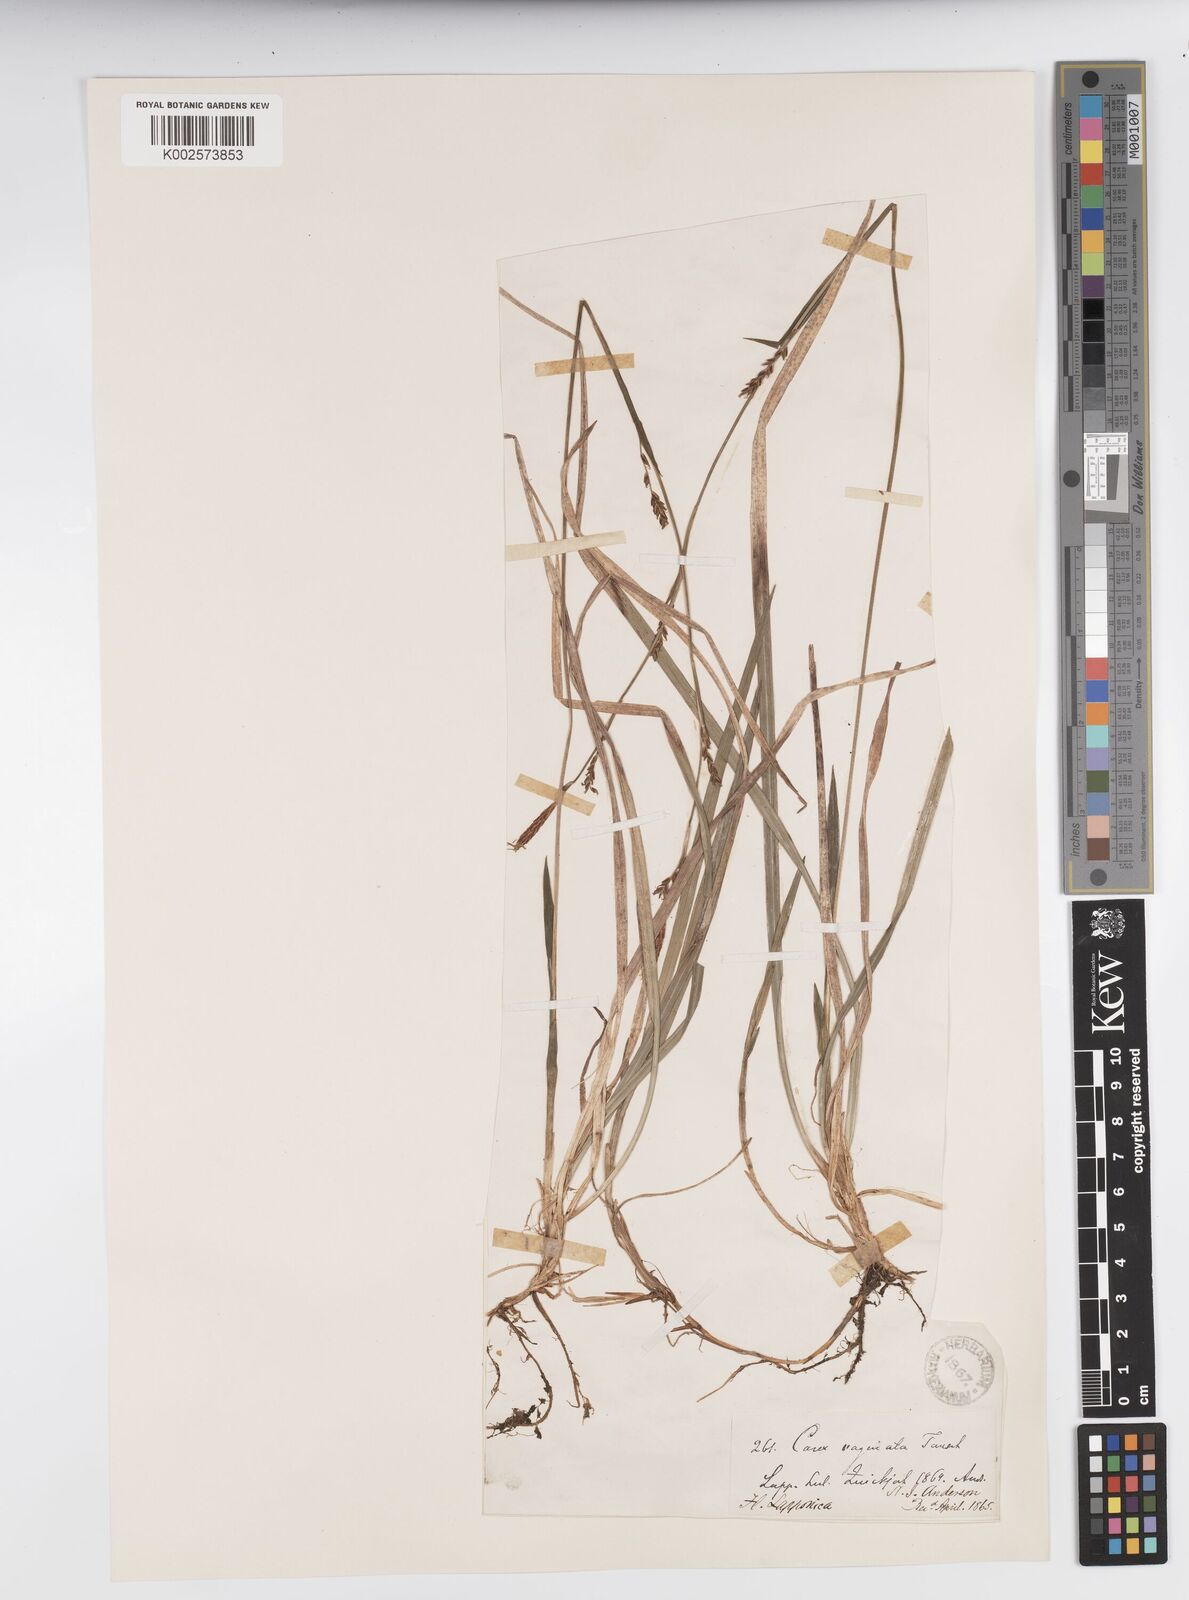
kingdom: Plantae
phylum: Tracheophyta
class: Liliopsida
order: Poales
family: Cyperaceae
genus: Carex
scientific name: Carex vaginata
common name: Sheathed sedge
